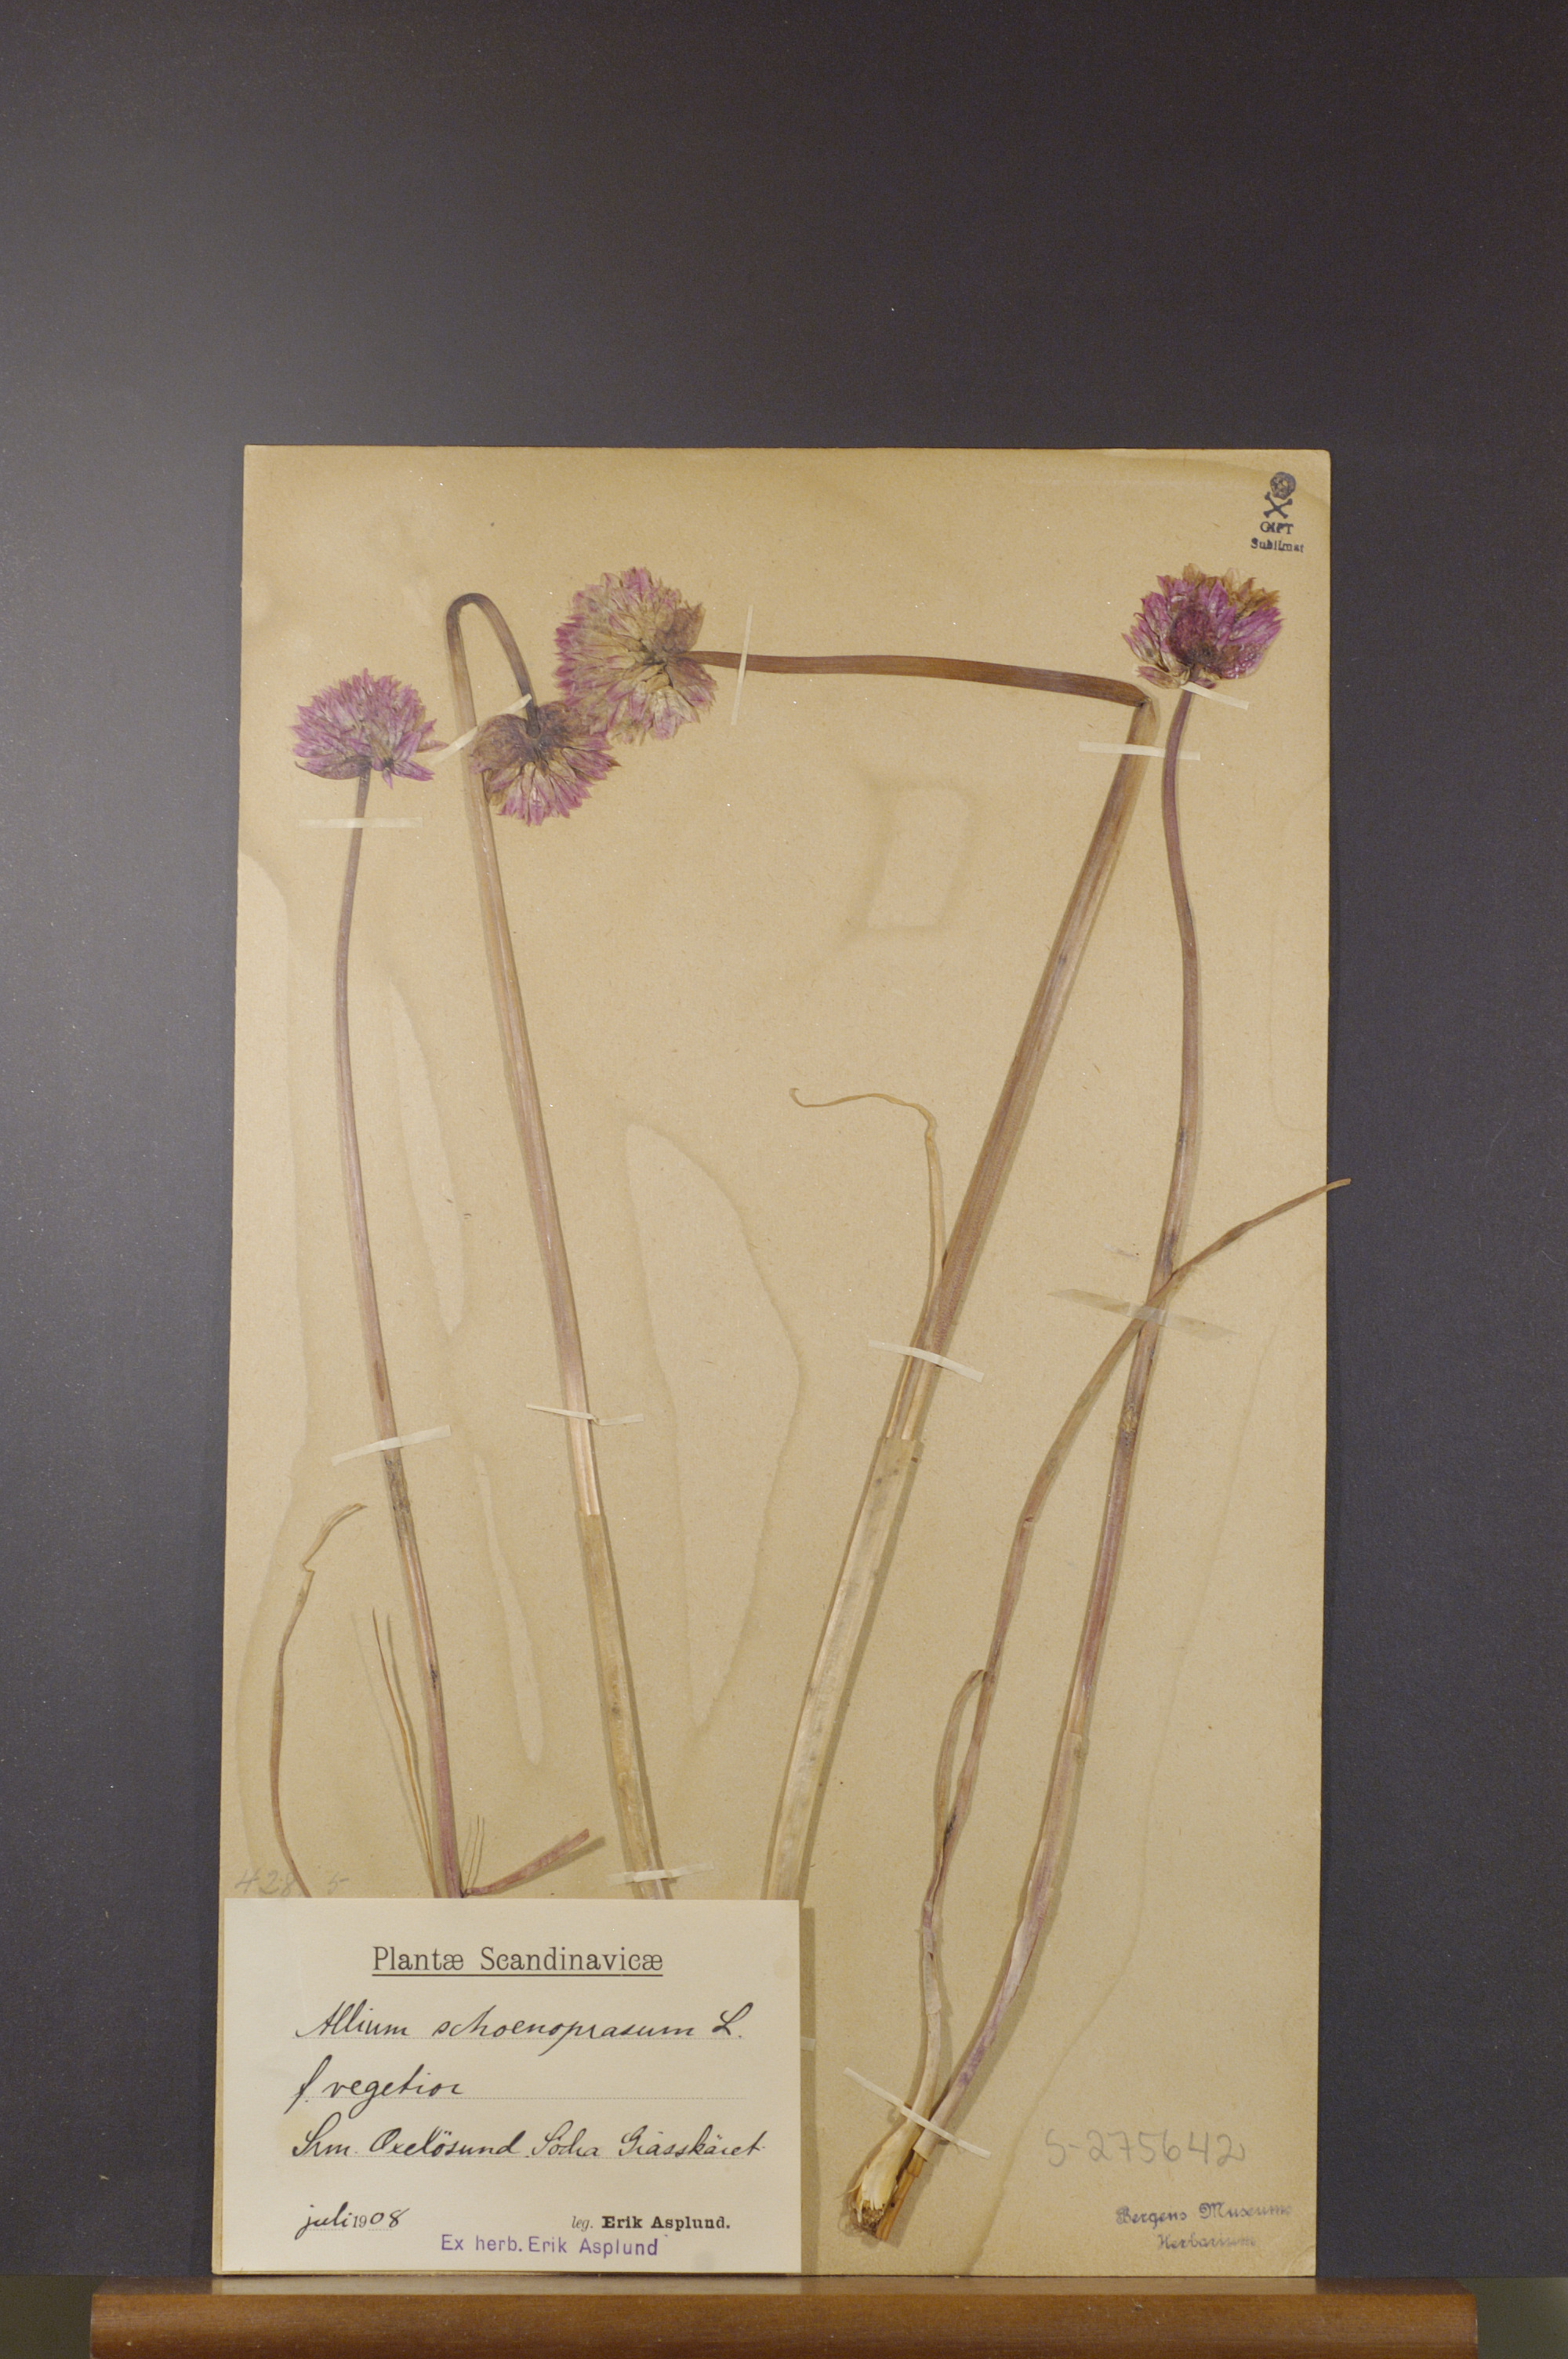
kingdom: Plantae
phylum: Tracheophyta
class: Liliopsida
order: Asparagales
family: Amaryllidaceae
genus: Allium
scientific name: Allium schoenoprasum
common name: Chives
